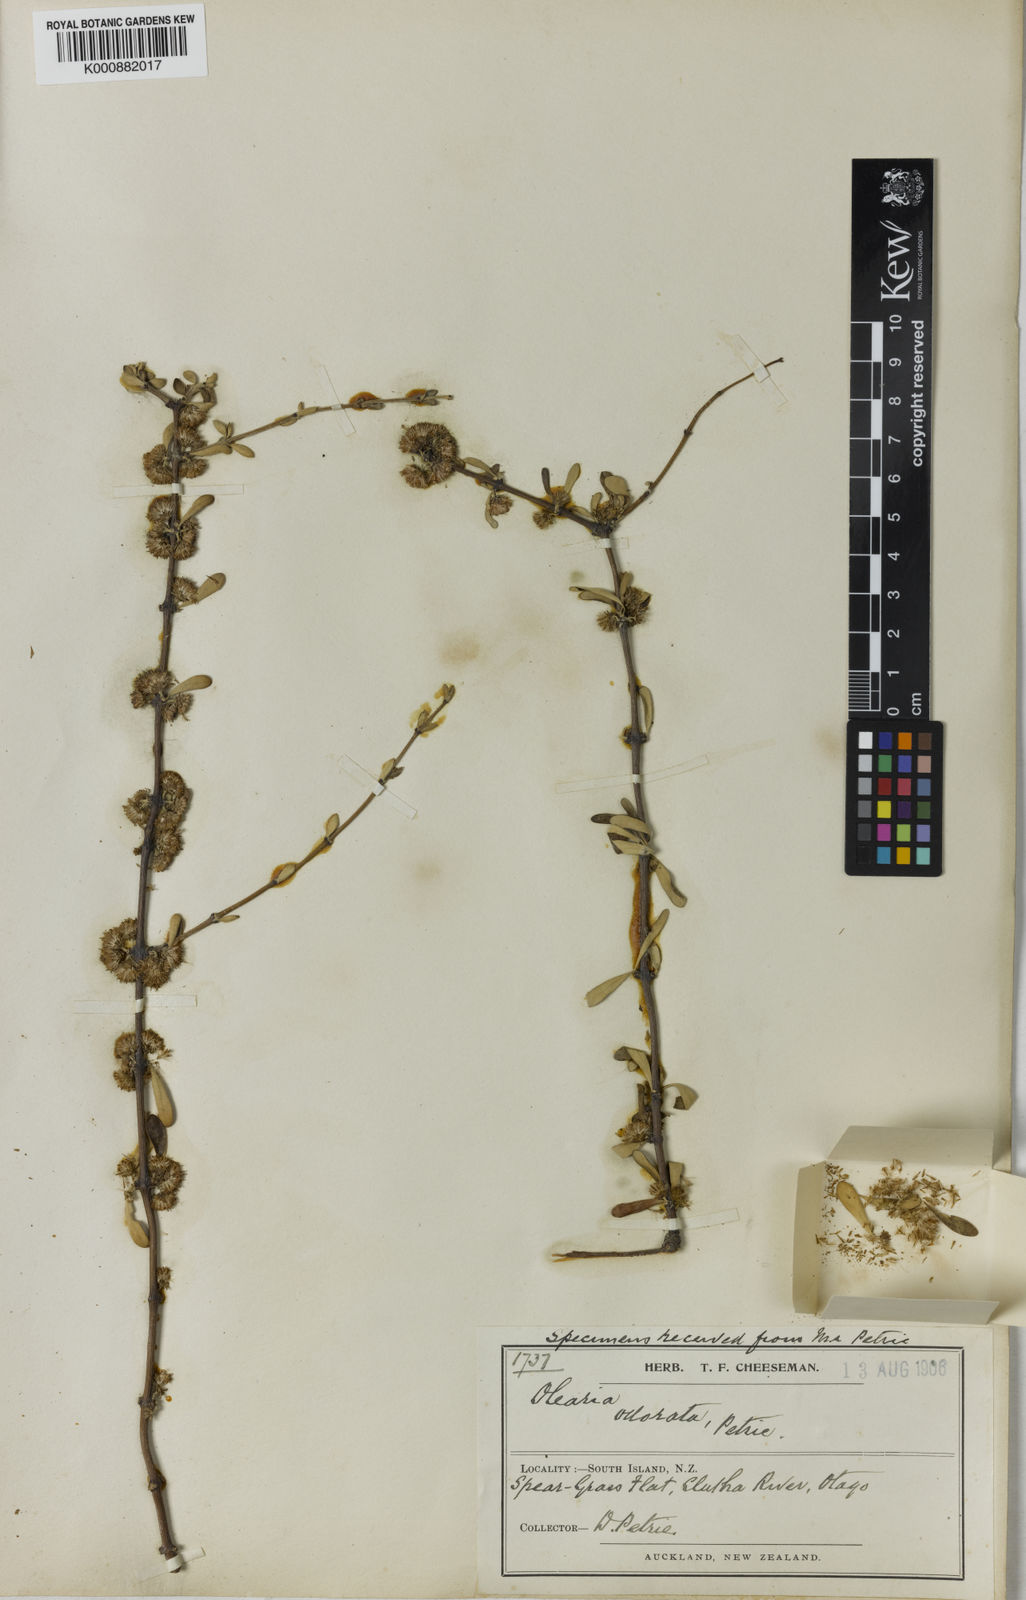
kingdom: Plantae
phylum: Tracheophyta
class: Magnoliopsida
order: Asterales
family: Asteraceae
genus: Olearia
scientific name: Olearia odorata
